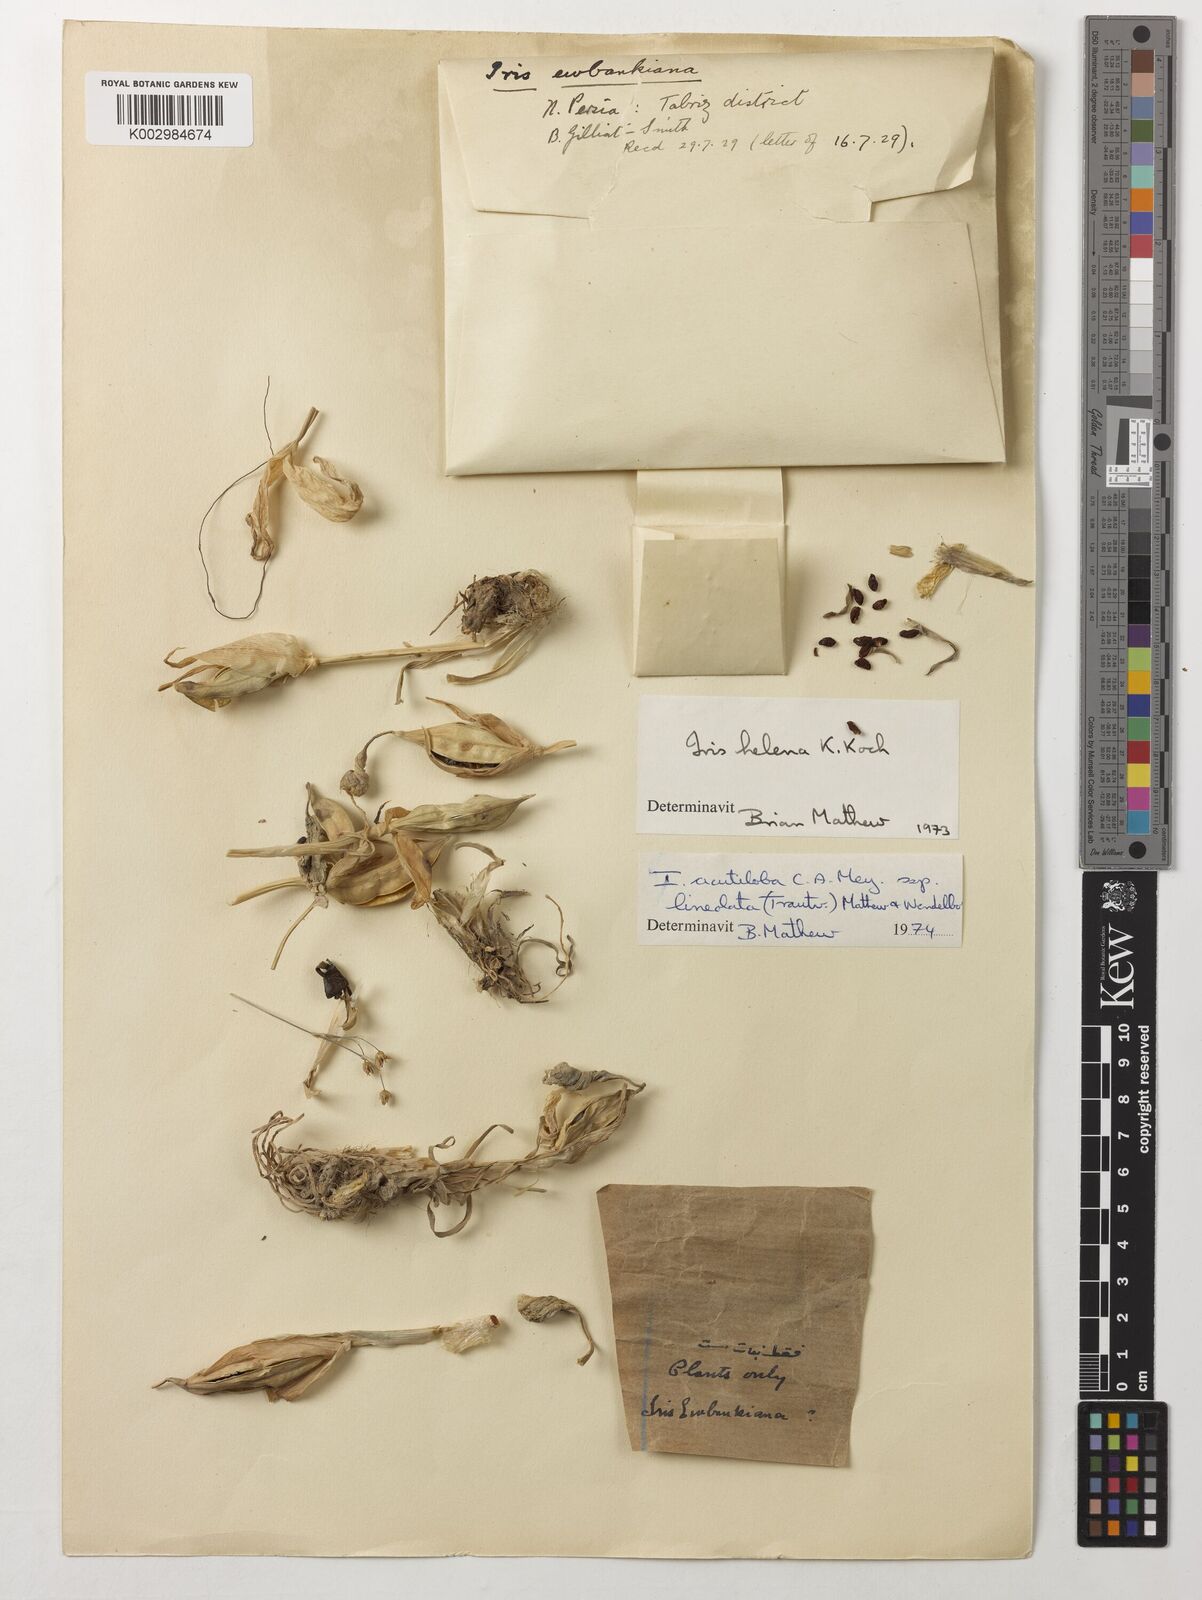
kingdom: Plantae
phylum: Tracheophyta
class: Liliopsida
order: Asparagales
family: Iridaceae
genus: Iris
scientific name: Iris acutiloba
